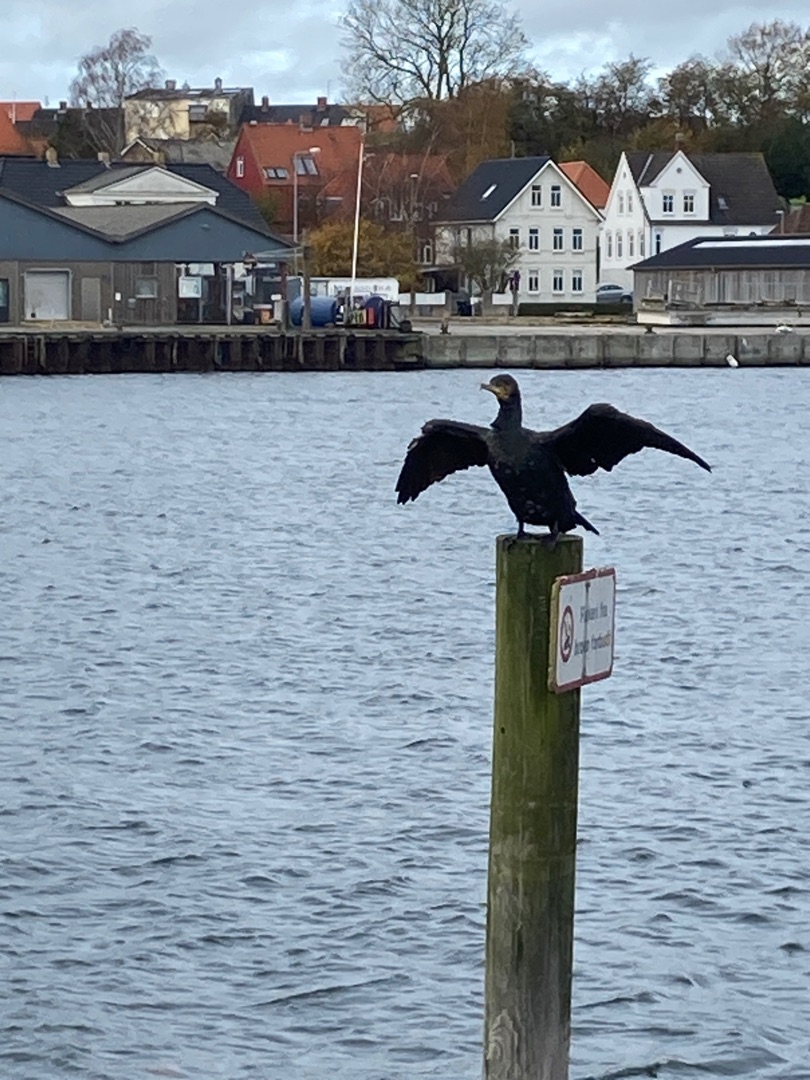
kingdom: Animalia
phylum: Chordata
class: Aves
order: Suliformes
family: Phalacrocoracidae
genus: Phalacrocorax
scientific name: Phalacrocorax carbo
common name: Skarv
